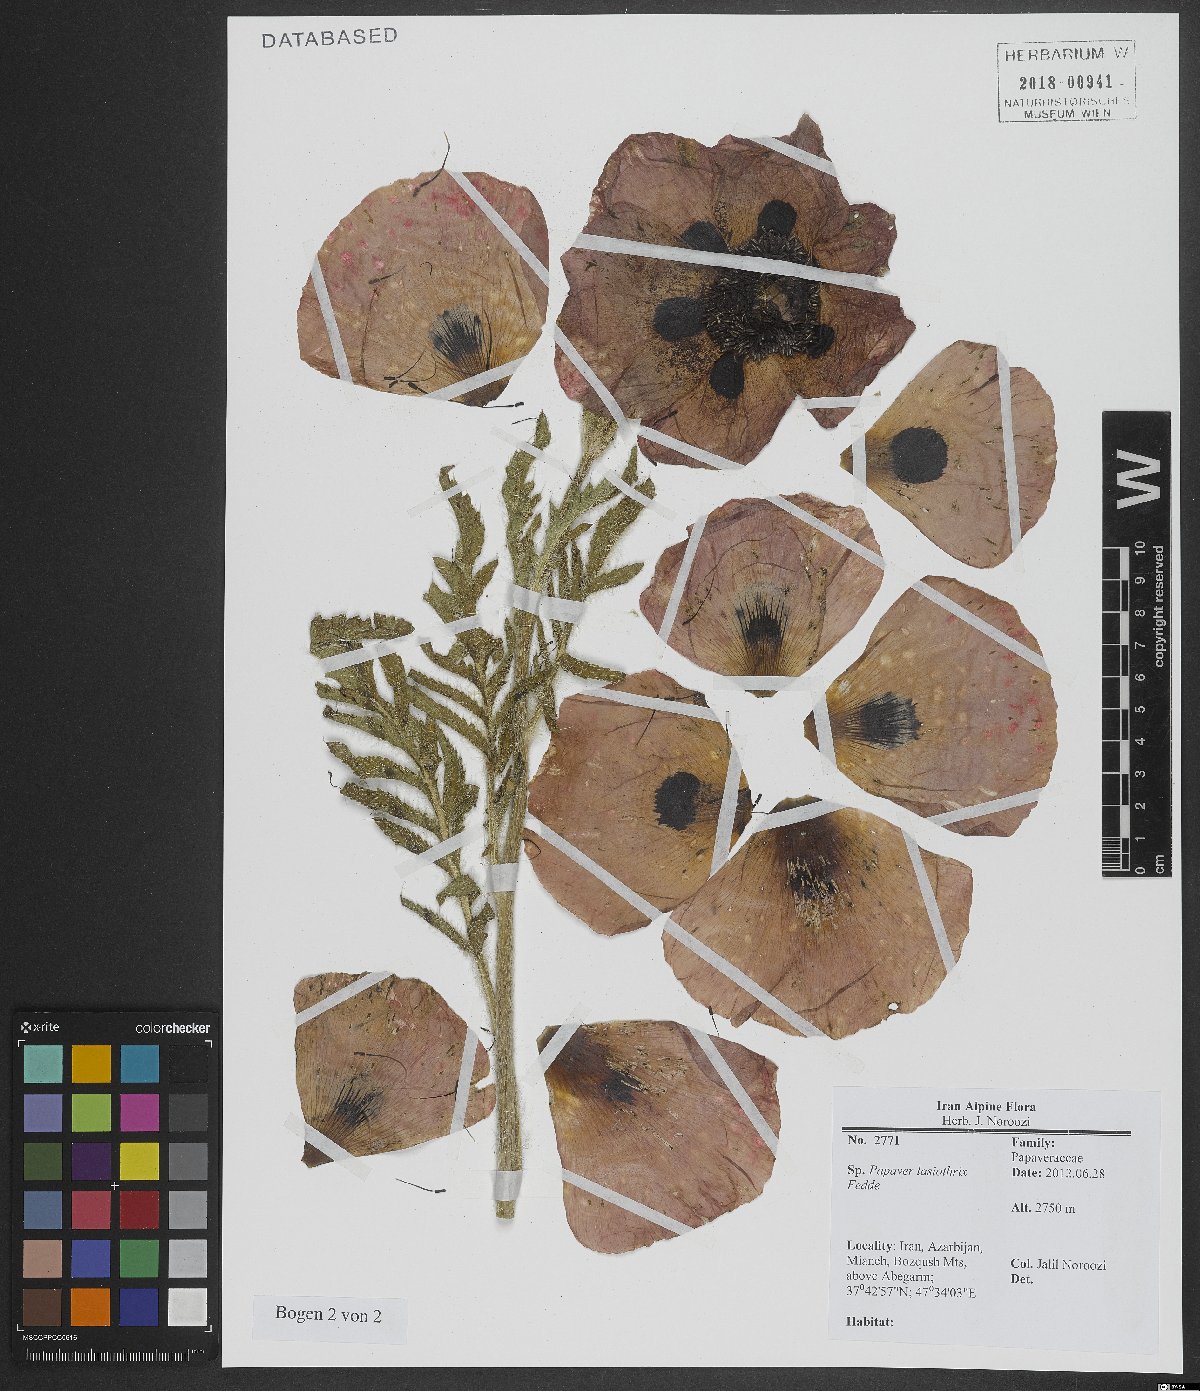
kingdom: Plantae
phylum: Tracheophyta
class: Magnoliopsida
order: Ranunculales
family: Papaveraceae
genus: Papaver
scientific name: Papaver setiferum
